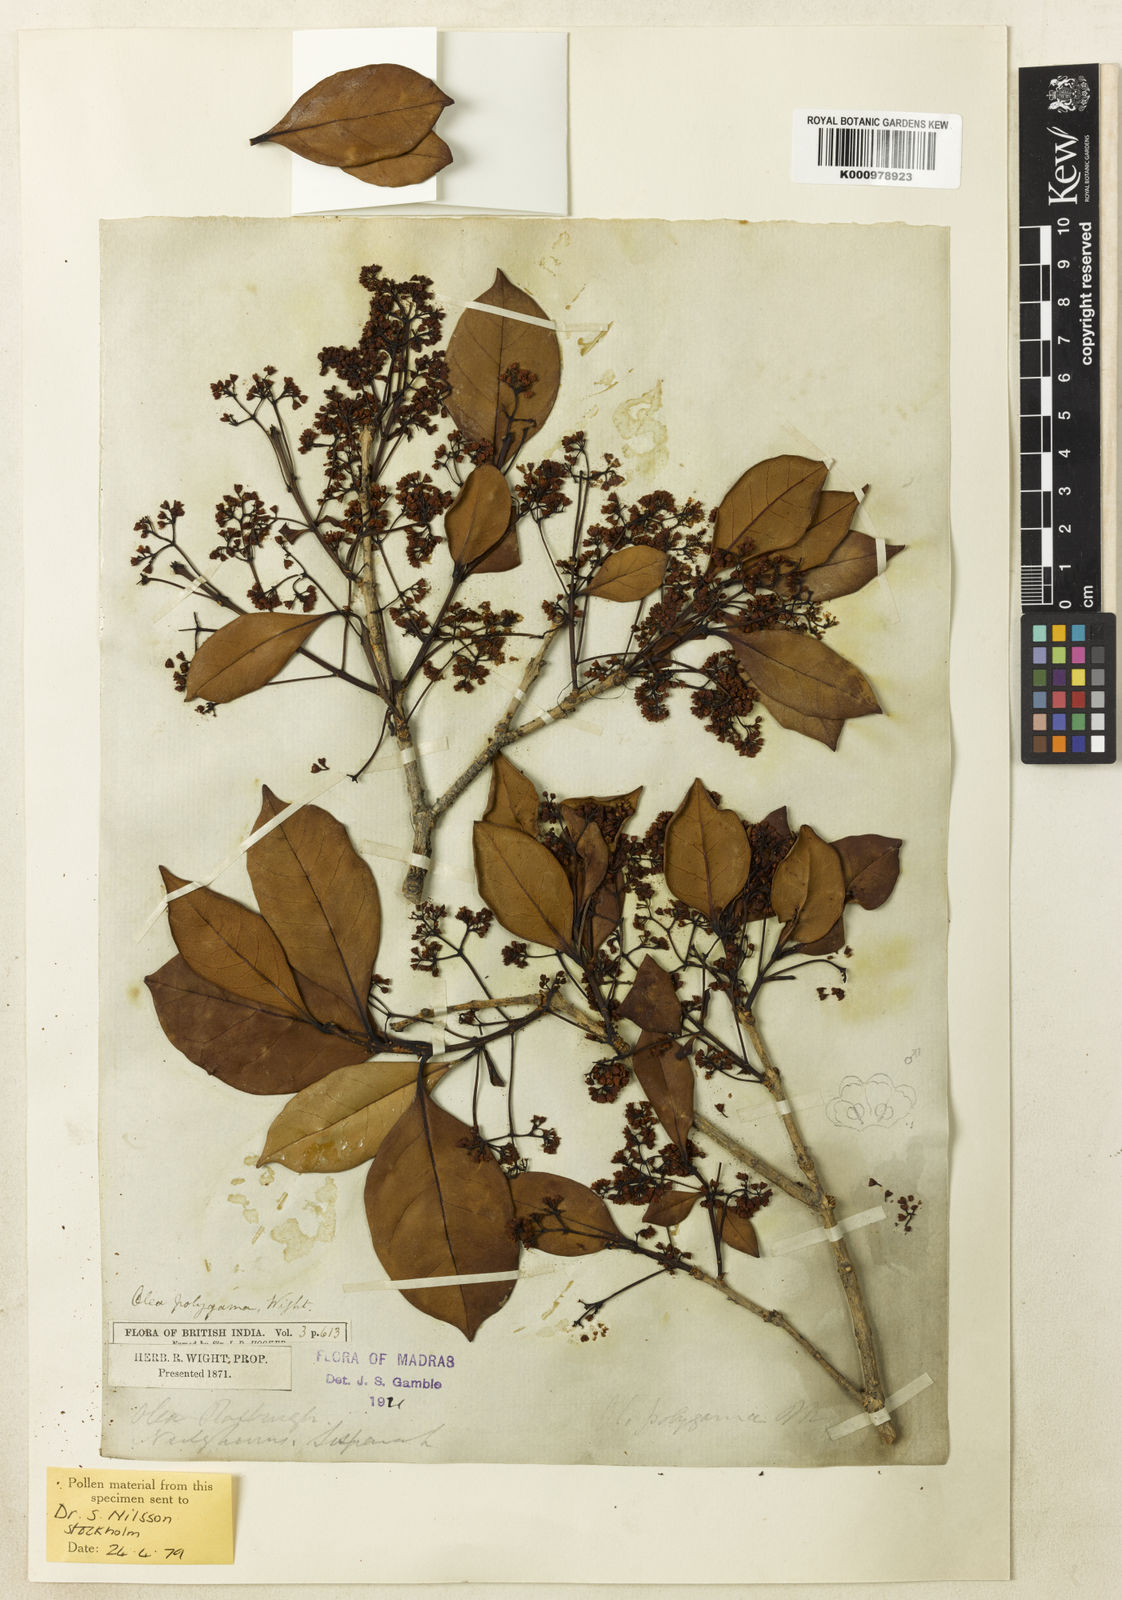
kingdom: Plantae
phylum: Tracheophyta
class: Magnoliopsida
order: Lamiales
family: Oleaceae
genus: Tetrapilus
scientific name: Tetrapilus polygamus
